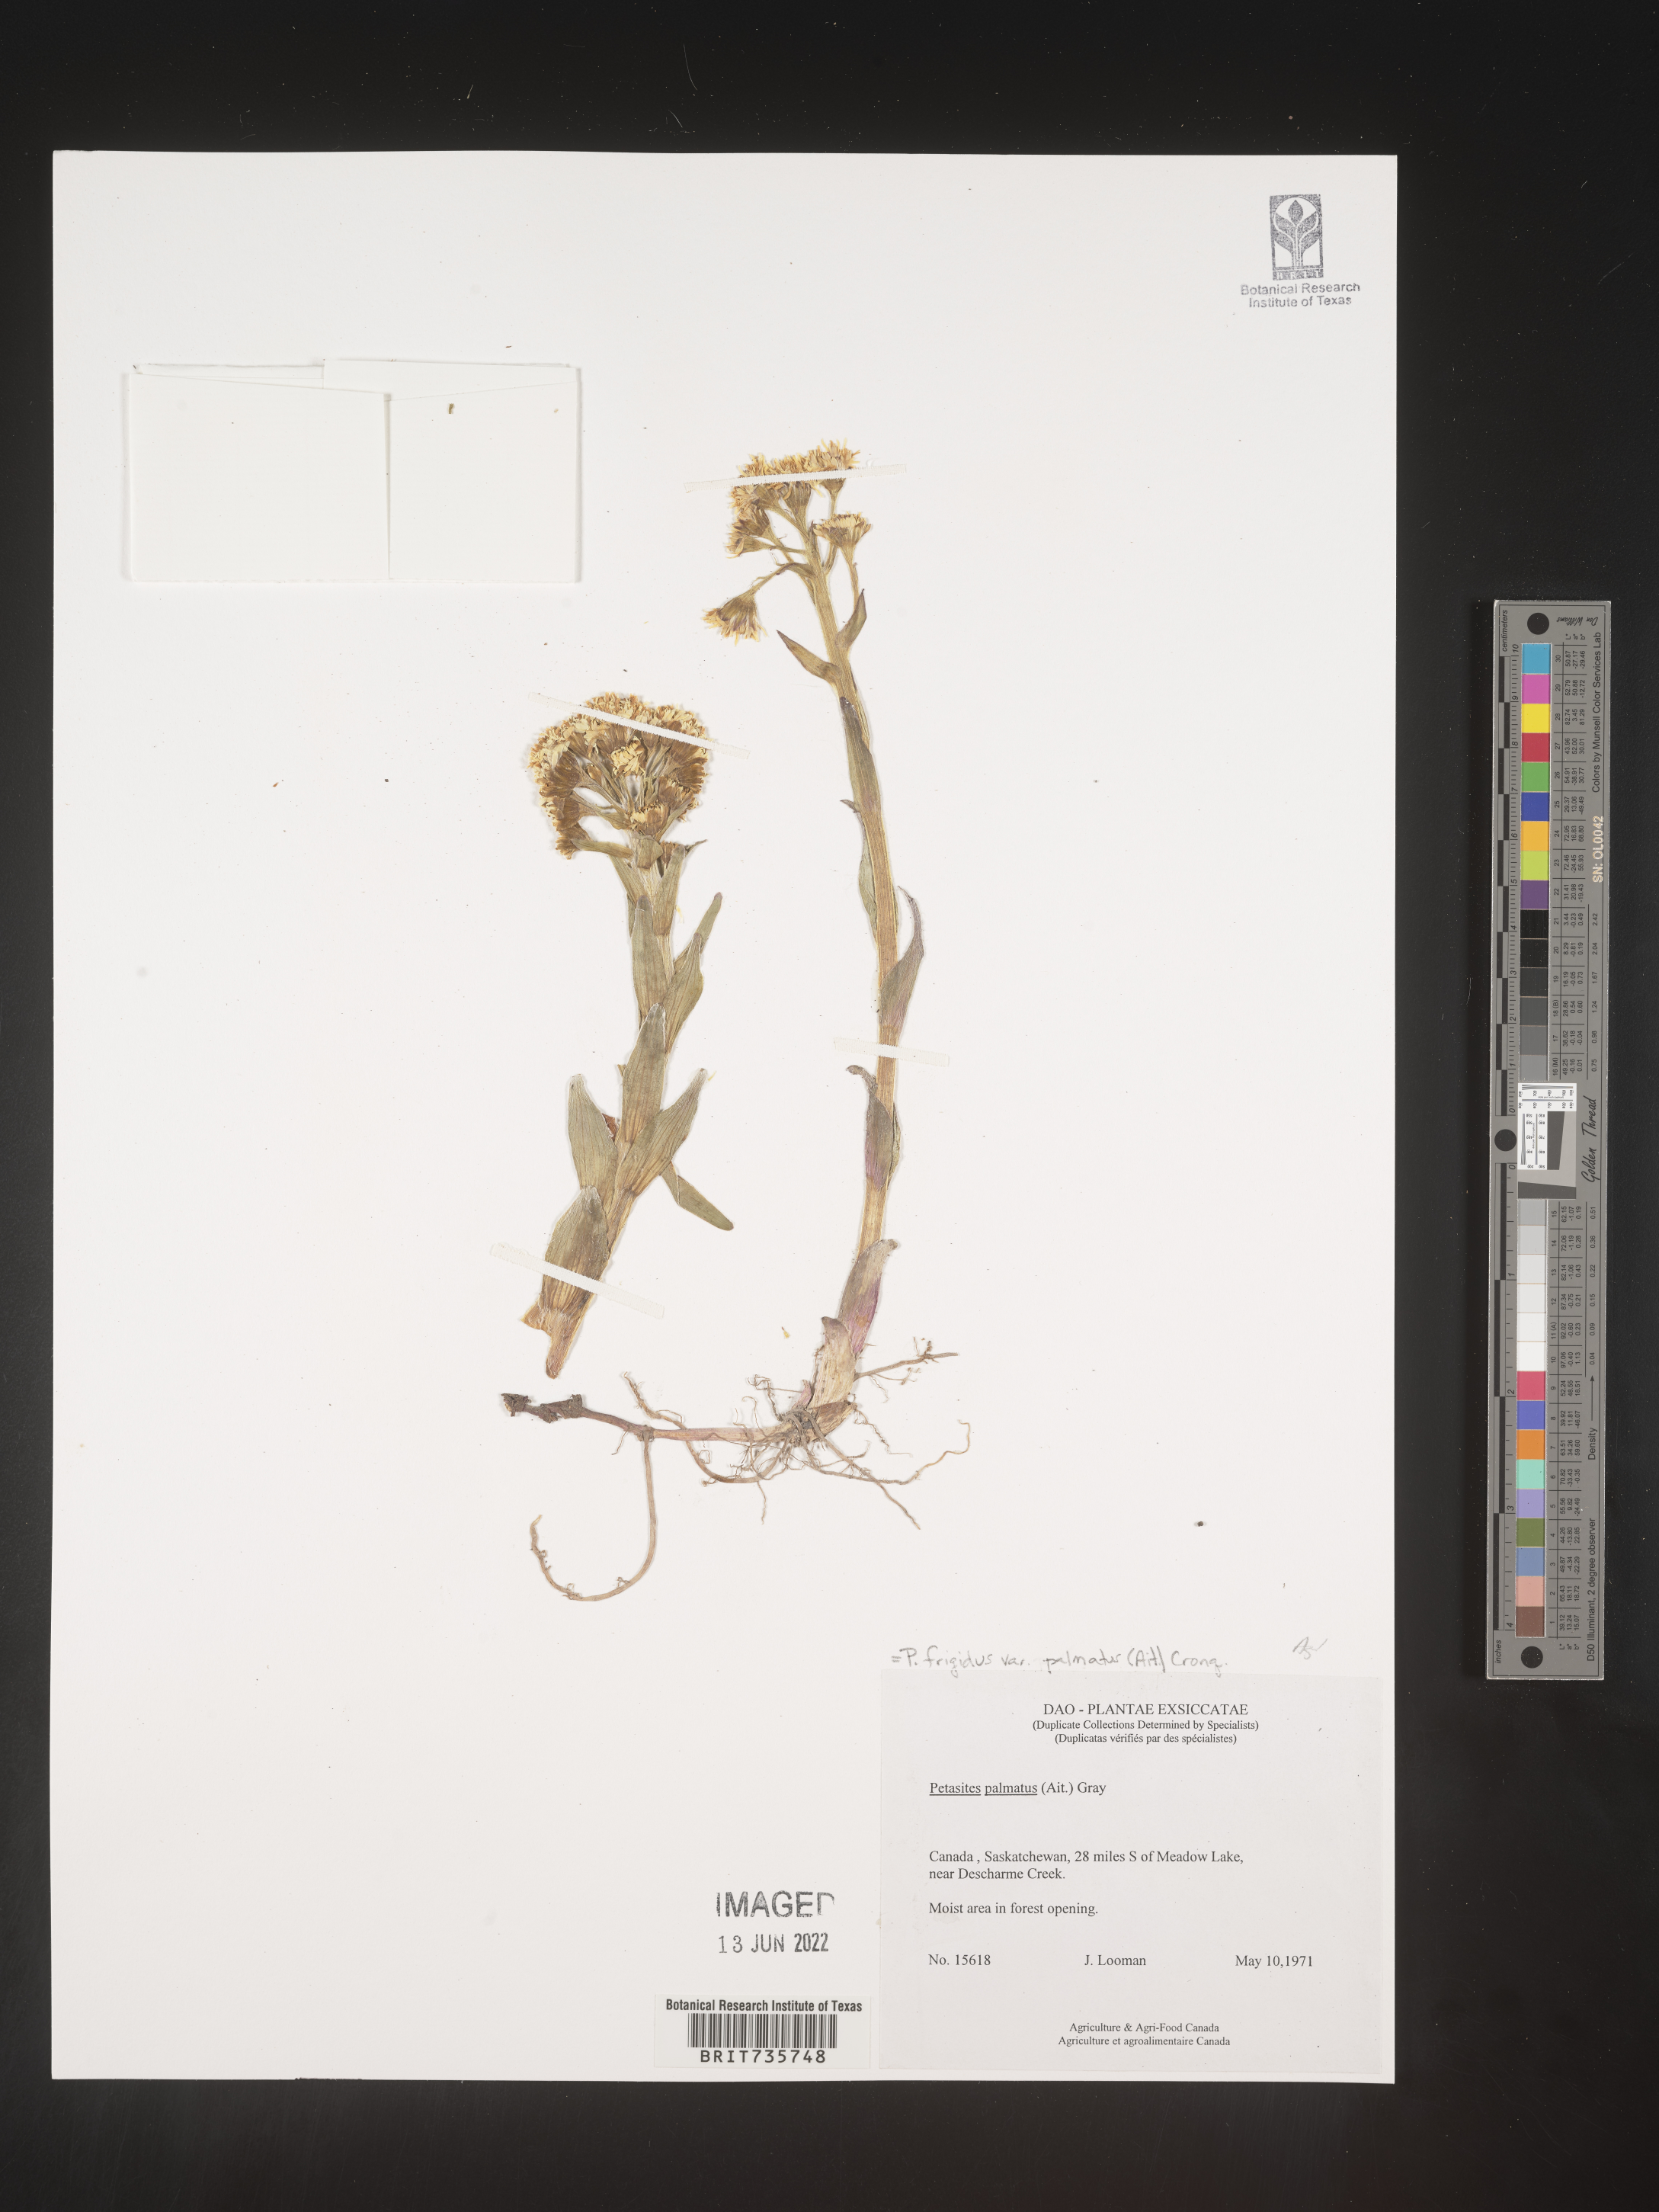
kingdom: Plantae
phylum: Tracheophyta
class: Magnoliopsida
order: Asterales
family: Asteraceae
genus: Petasites
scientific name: Petasites frigidus
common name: Arctic butterbur
